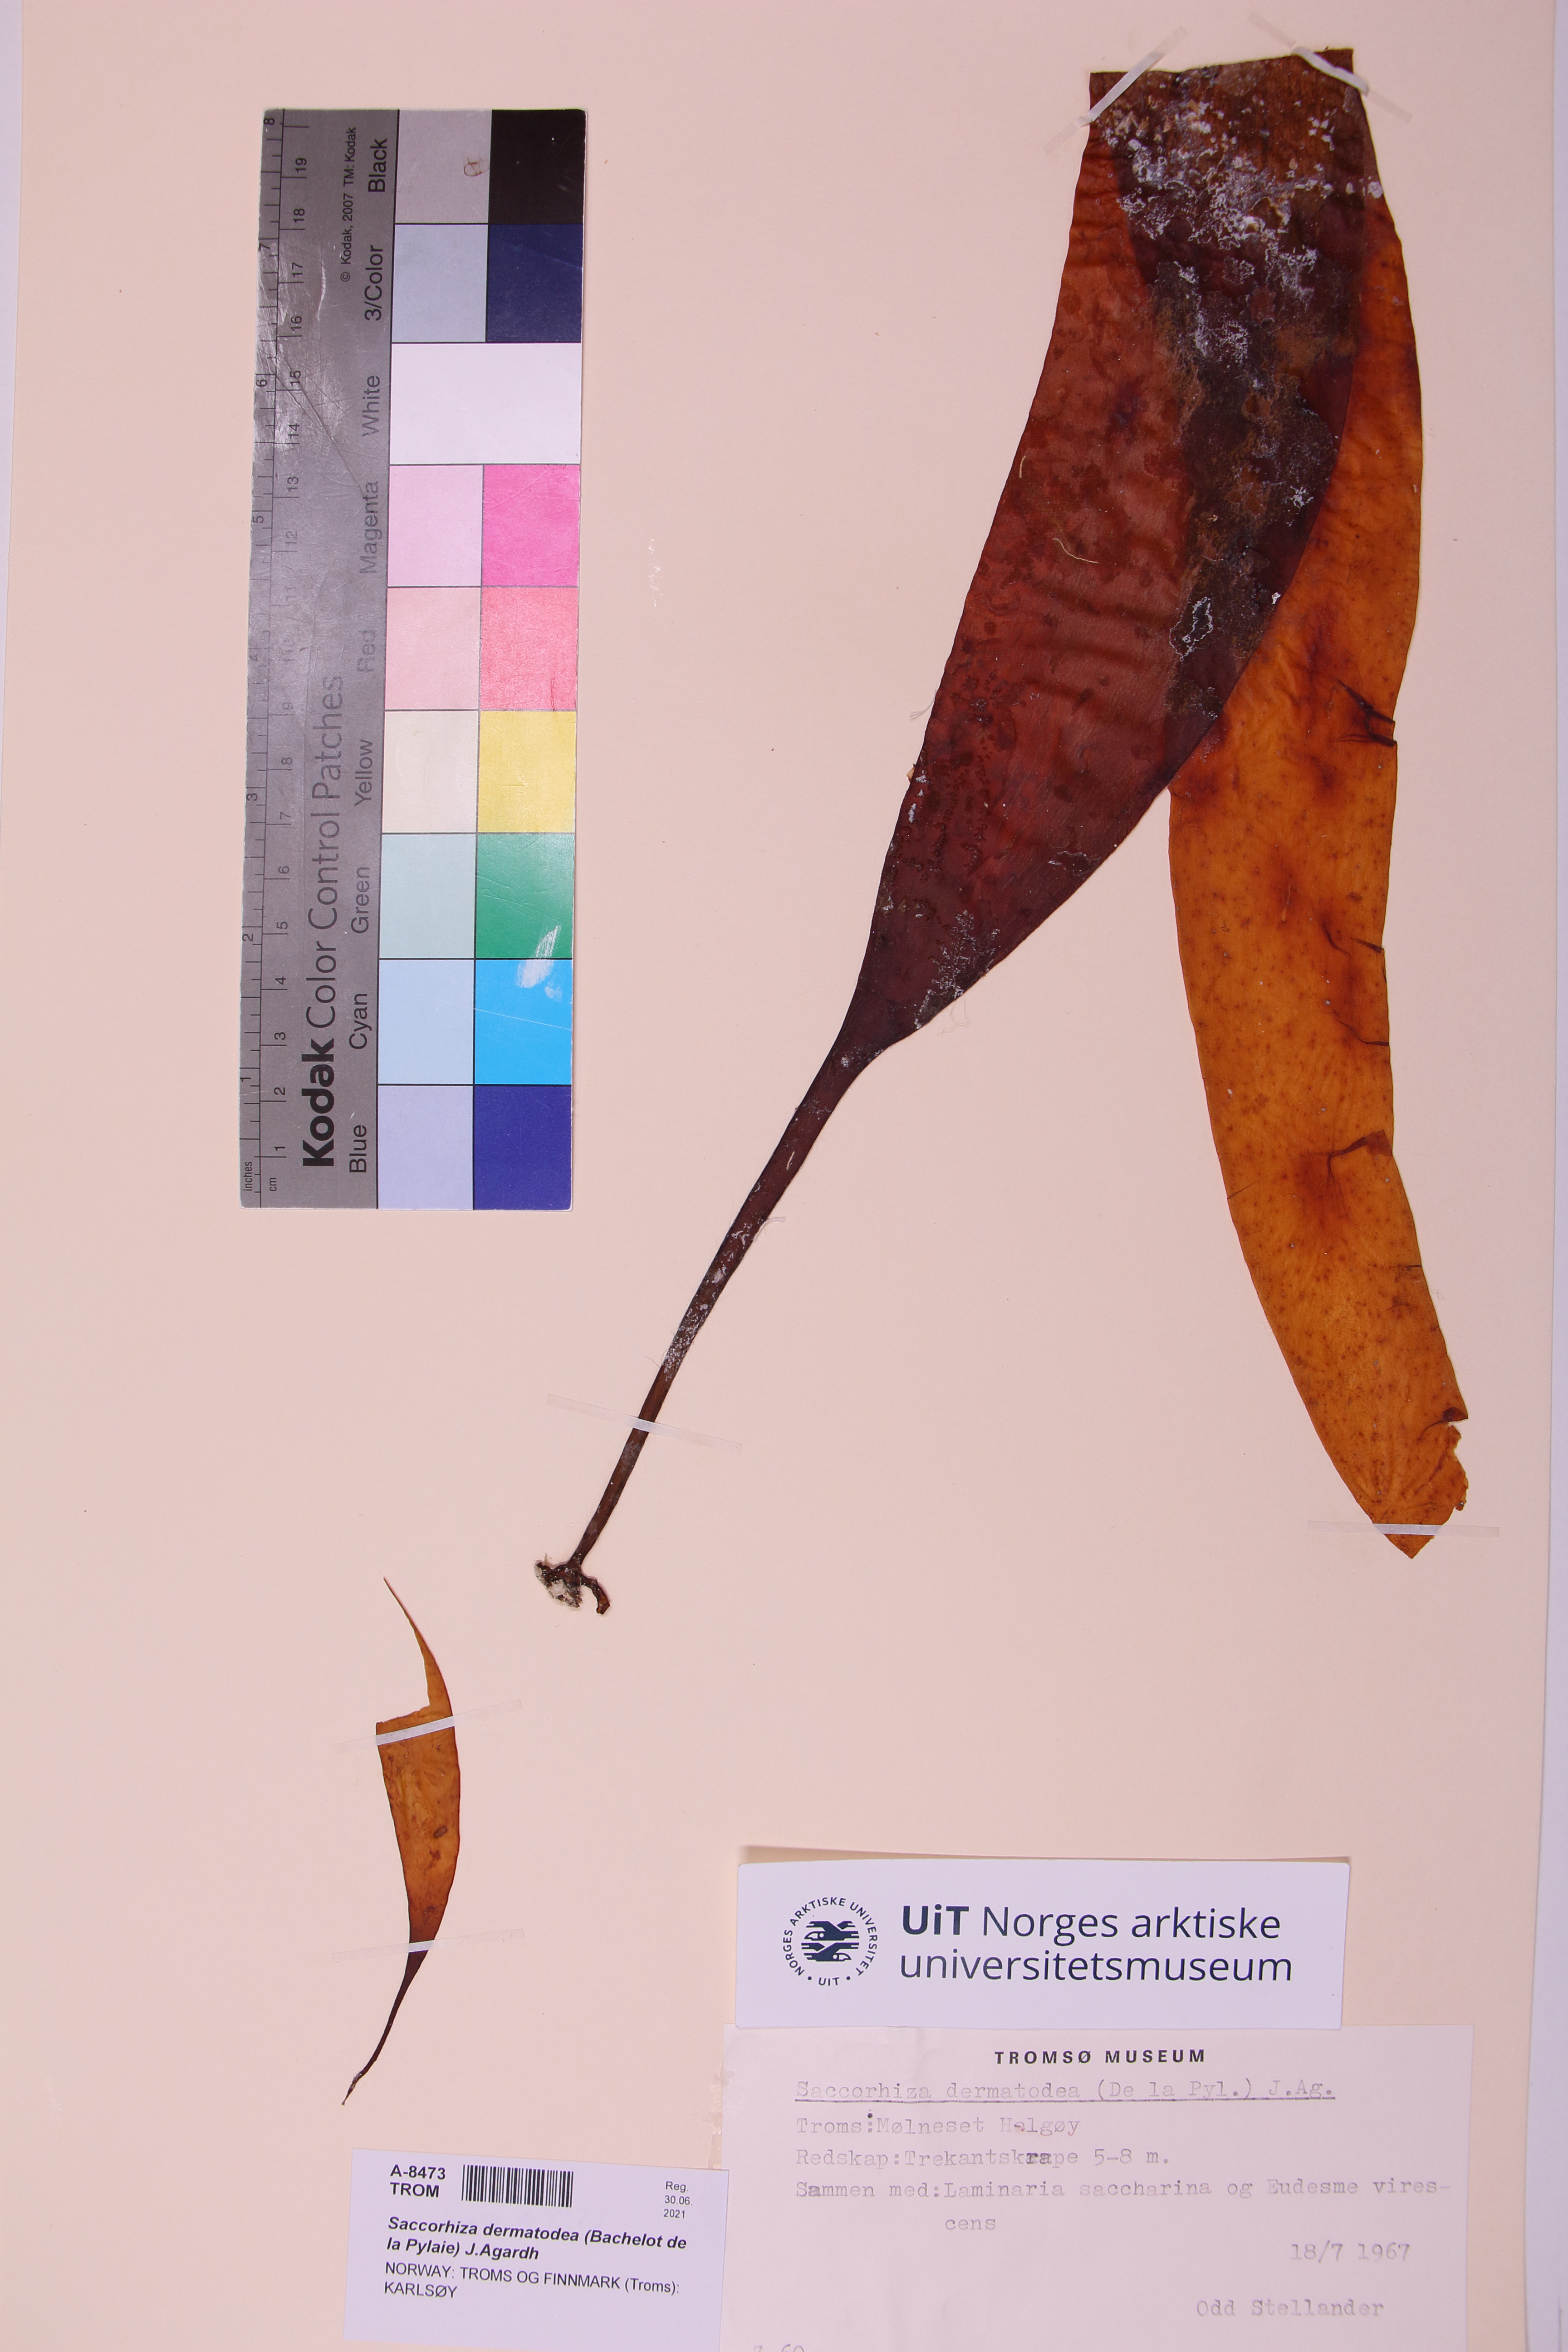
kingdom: Chromista
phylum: Ochrophyta
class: Phaeophyceae
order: Tilopteridales
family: Phyllariaceae
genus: Saccorhiza
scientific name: Saccorhiza dermatodea
